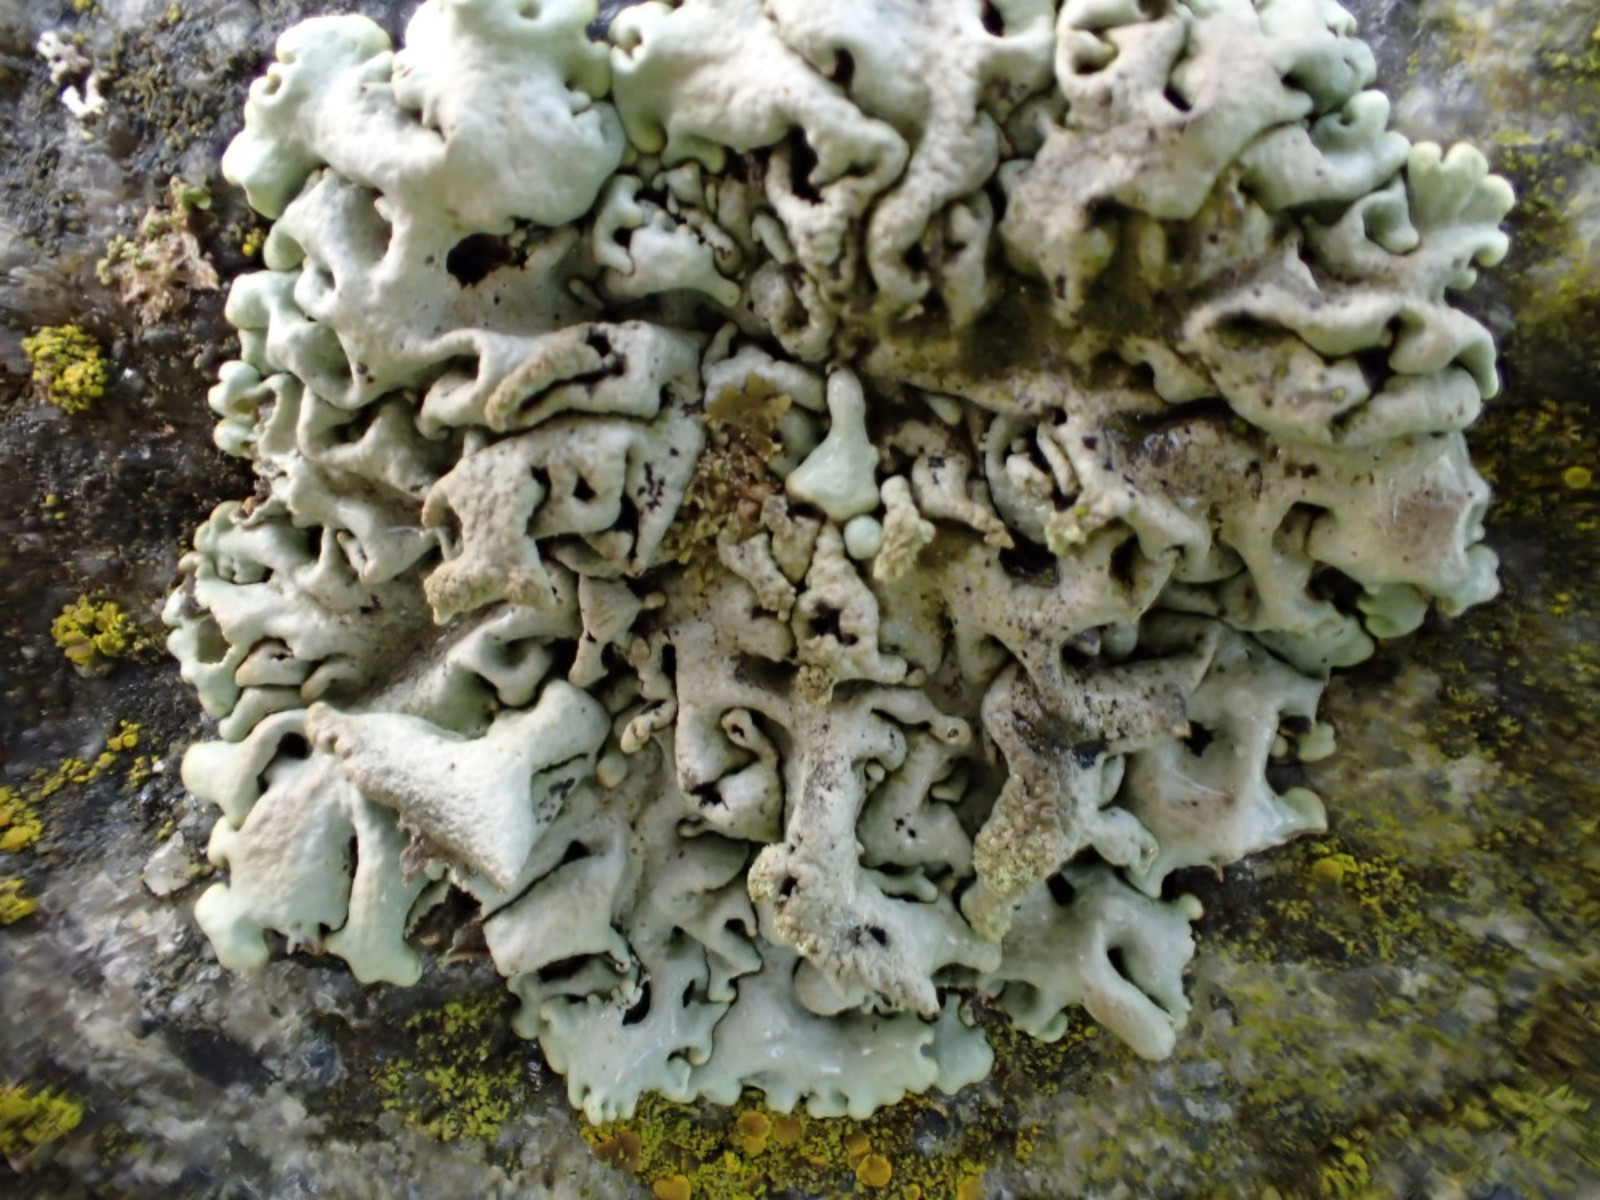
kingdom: Fungi
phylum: Ascomycota
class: Lecanoromycetes
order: Lecanorales
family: Parmeliaceae
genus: Hypogymnia
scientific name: Hypogymnia physodes
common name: almindelig kvistlav
